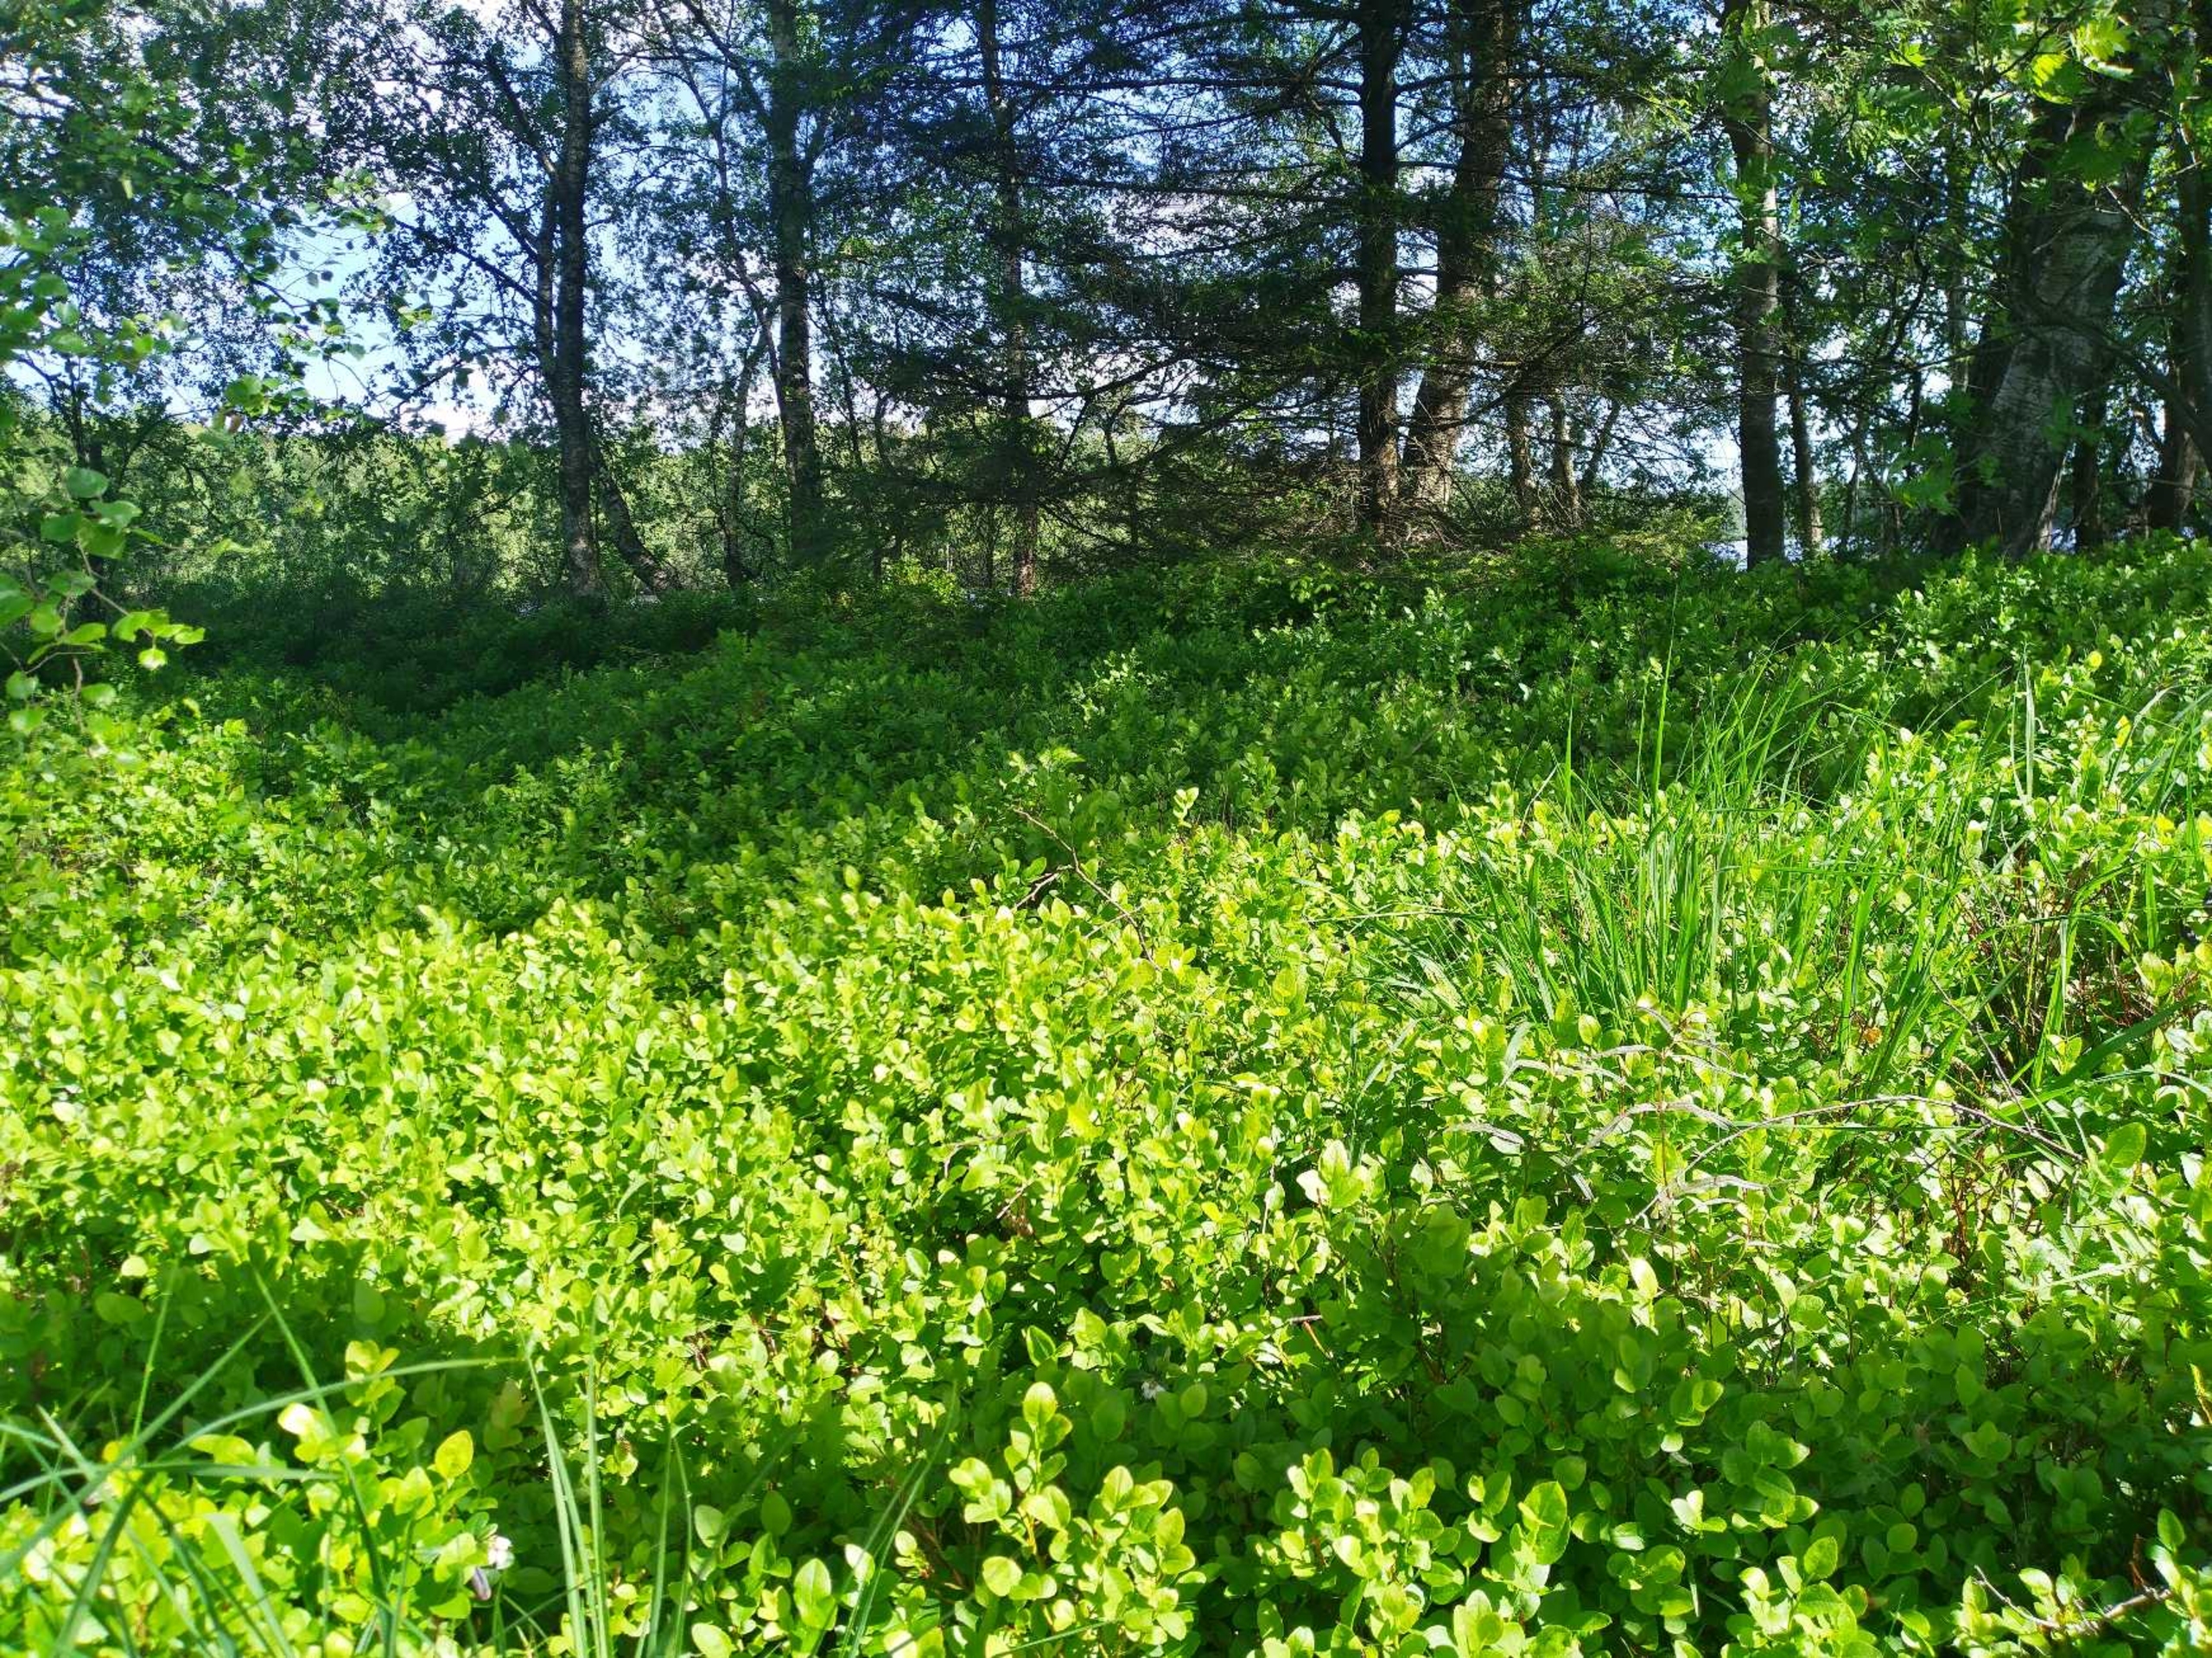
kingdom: Plantae
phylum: Tracheophyta
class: Magnoliopsida
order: Ericales
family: Ericaceae
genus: Vaccinium
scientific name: Vaccinium myrtillus
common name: Blåbær
